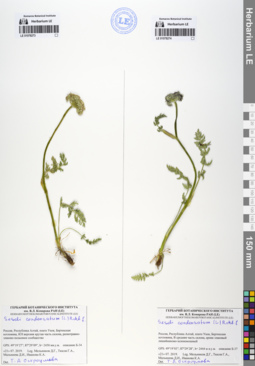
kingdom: Plantae
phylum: Tracheophyta
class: Magnoliopsida
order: Apiales
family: Apiaceae
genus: Seseli
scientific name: Seseli condensatum
